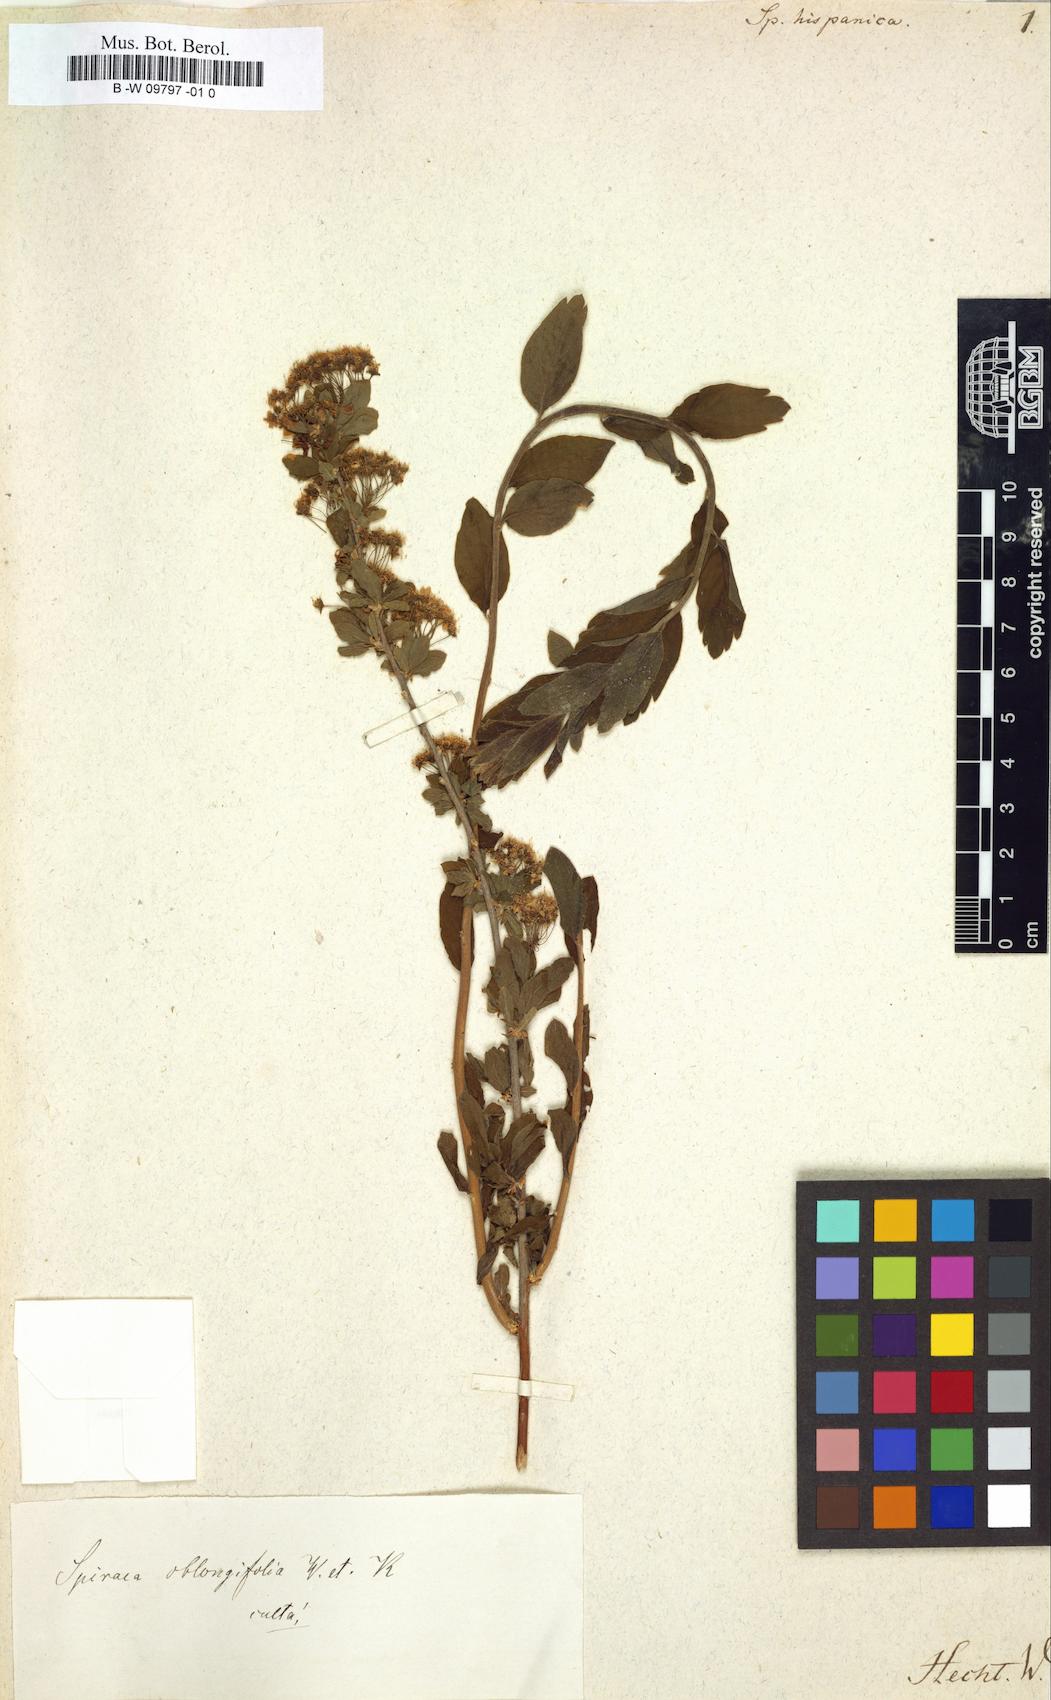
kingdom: Plantae
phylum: Tracheophyta
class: Magnoliopsida
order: Rosales
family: Rosaceae
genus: Spiraea
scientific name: Spiraea hypericifolia
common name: Iberian spirea
